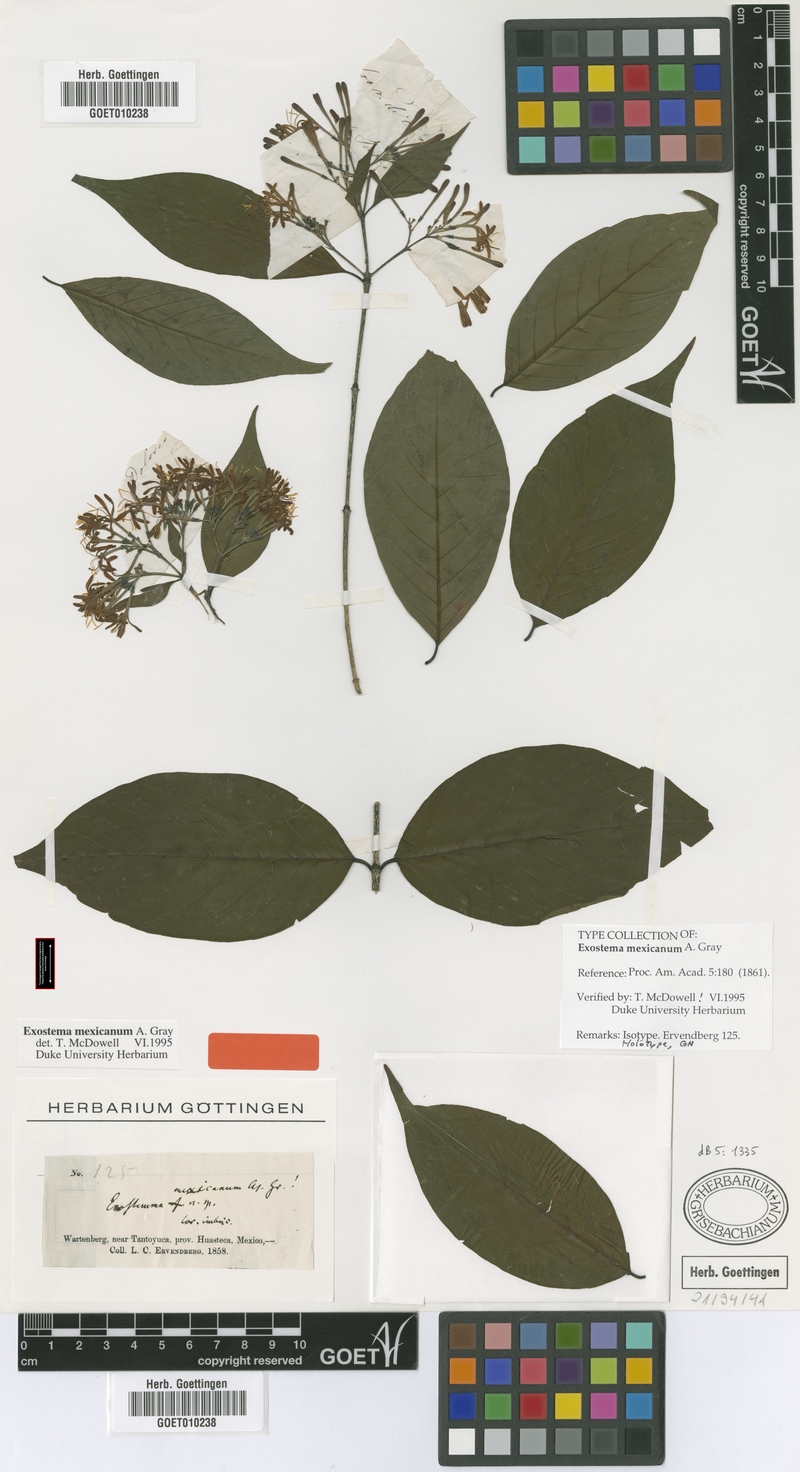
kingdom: Plantae
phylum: Tracheophyta
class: Magnoliopsida
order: Gentianales
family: Rubiaceae
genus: Solenandra
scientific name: Solenandra mexicana
